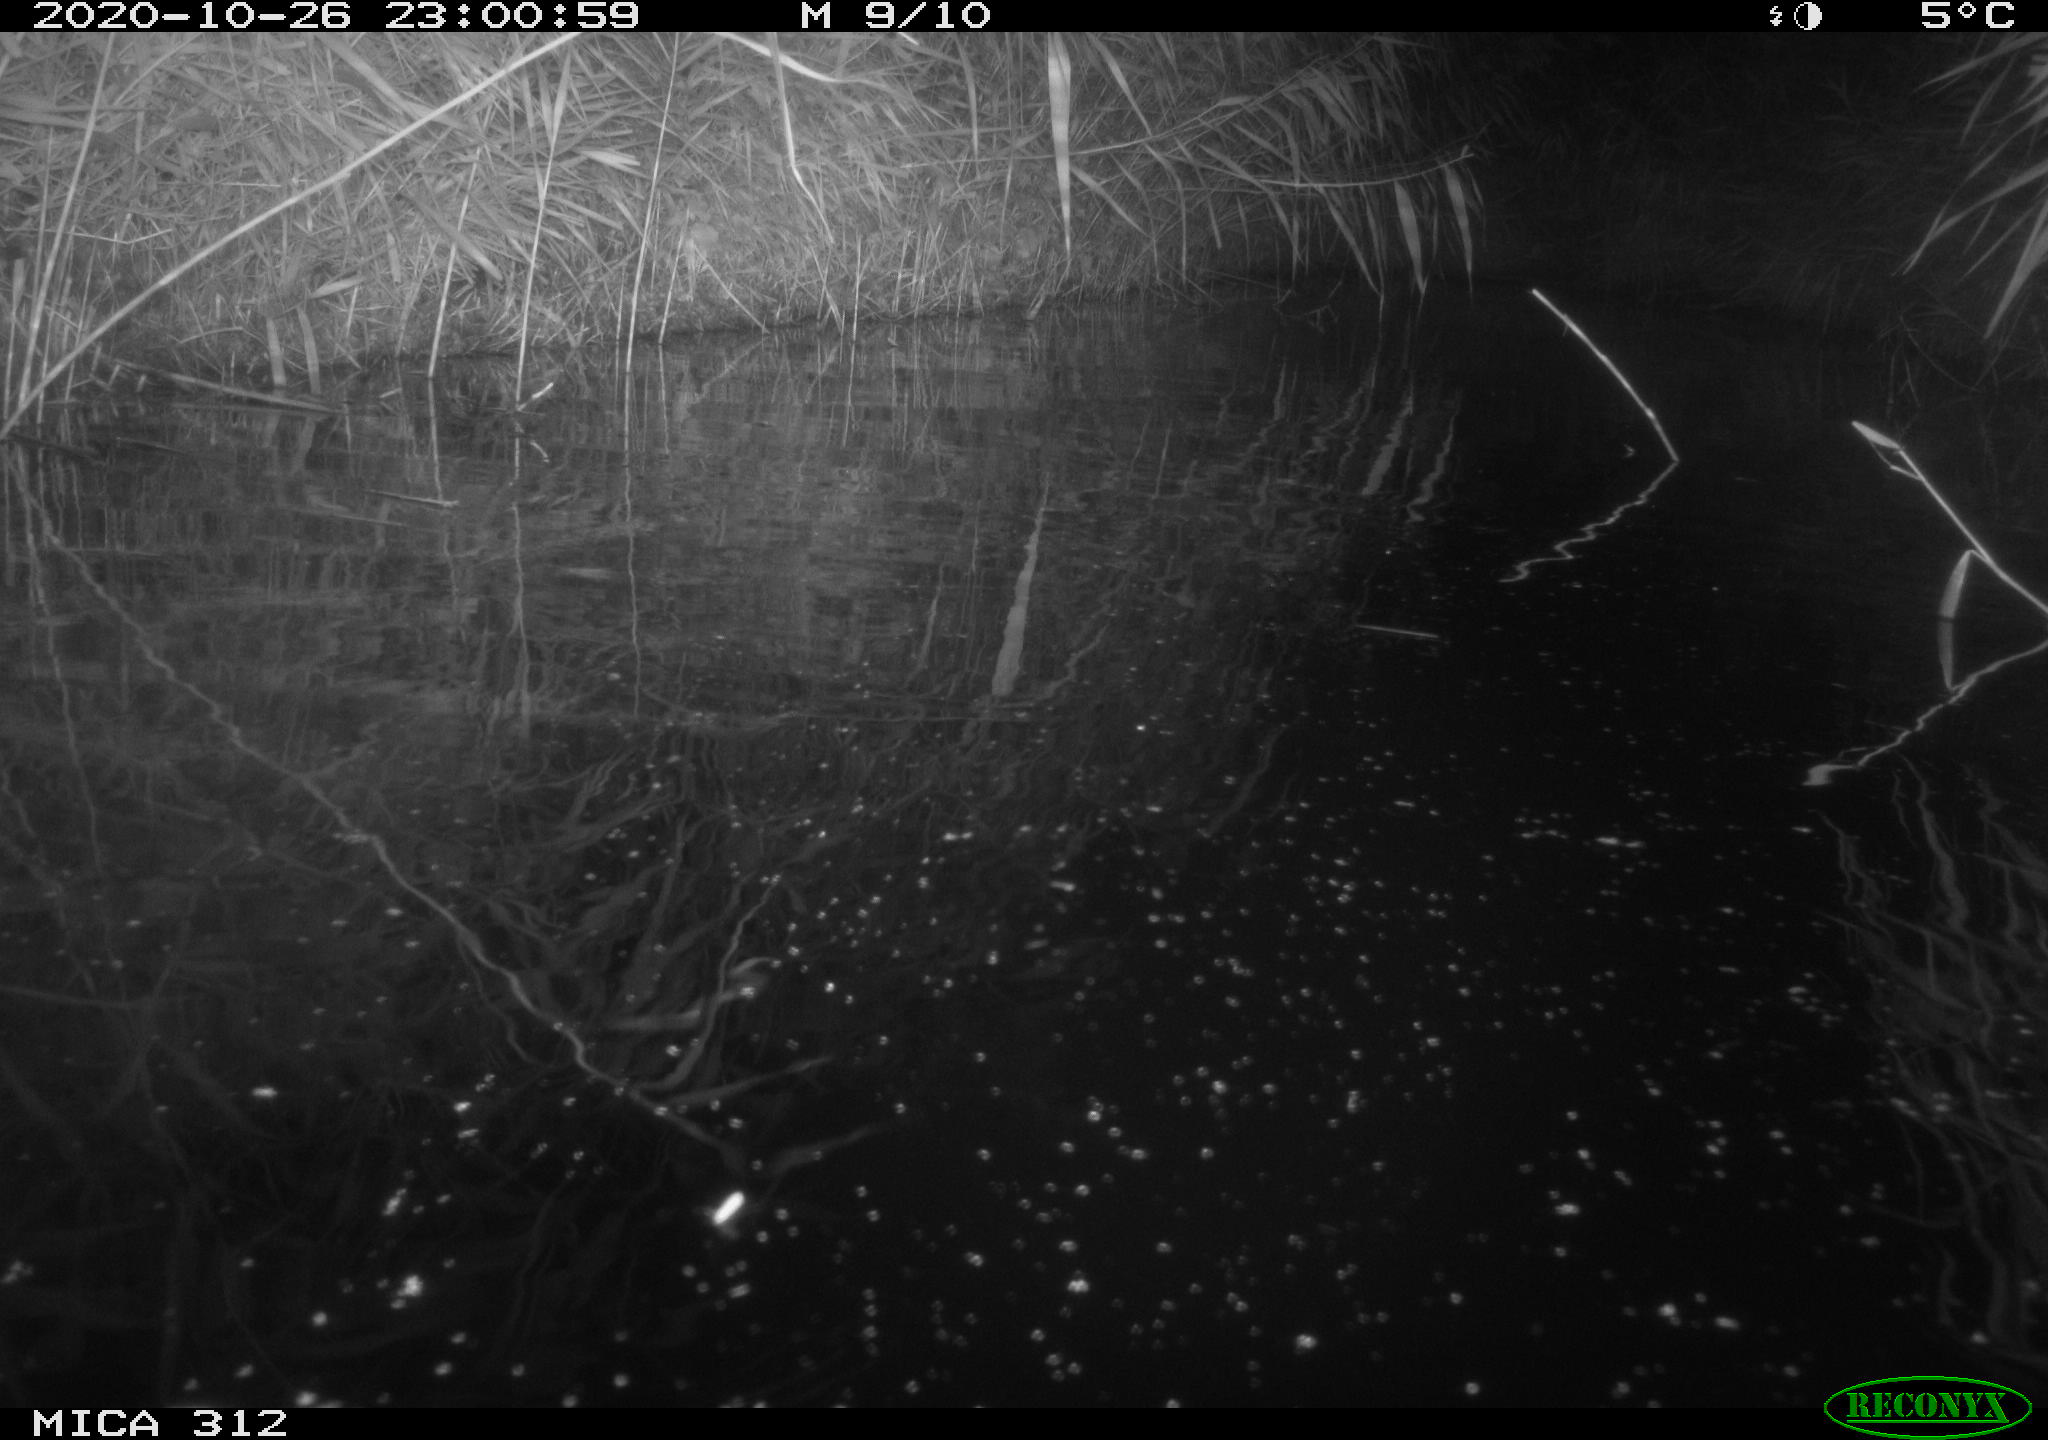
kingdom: Animalia
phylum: Chordata
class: Mammalia
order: Rodentia
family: Cricetidae
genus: Ondatra
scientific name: Ondatra zibethicus
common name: Muskrat
